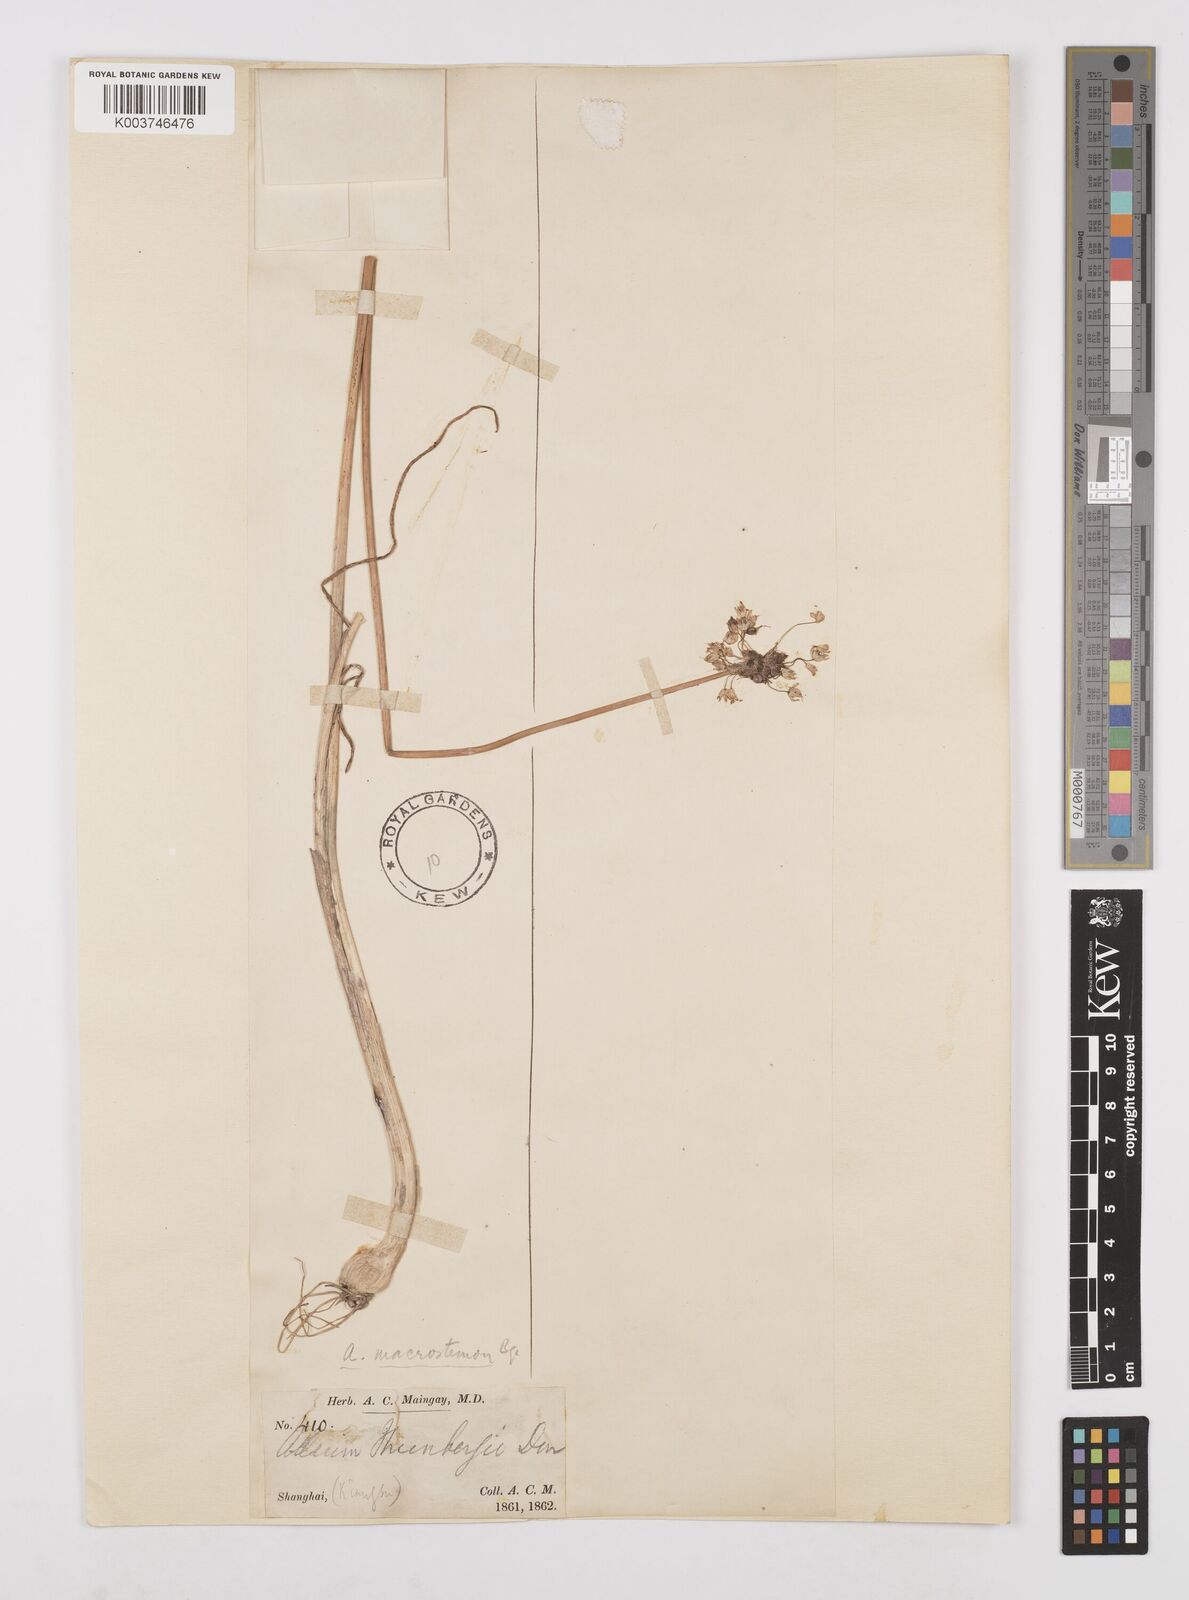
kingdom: Plantae
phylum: Tracheophyta
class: Liliopsida
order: Asparagales
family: Amaryllidaceae
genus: Allium
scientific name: Allium macrostemon
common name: Chinese garlic
